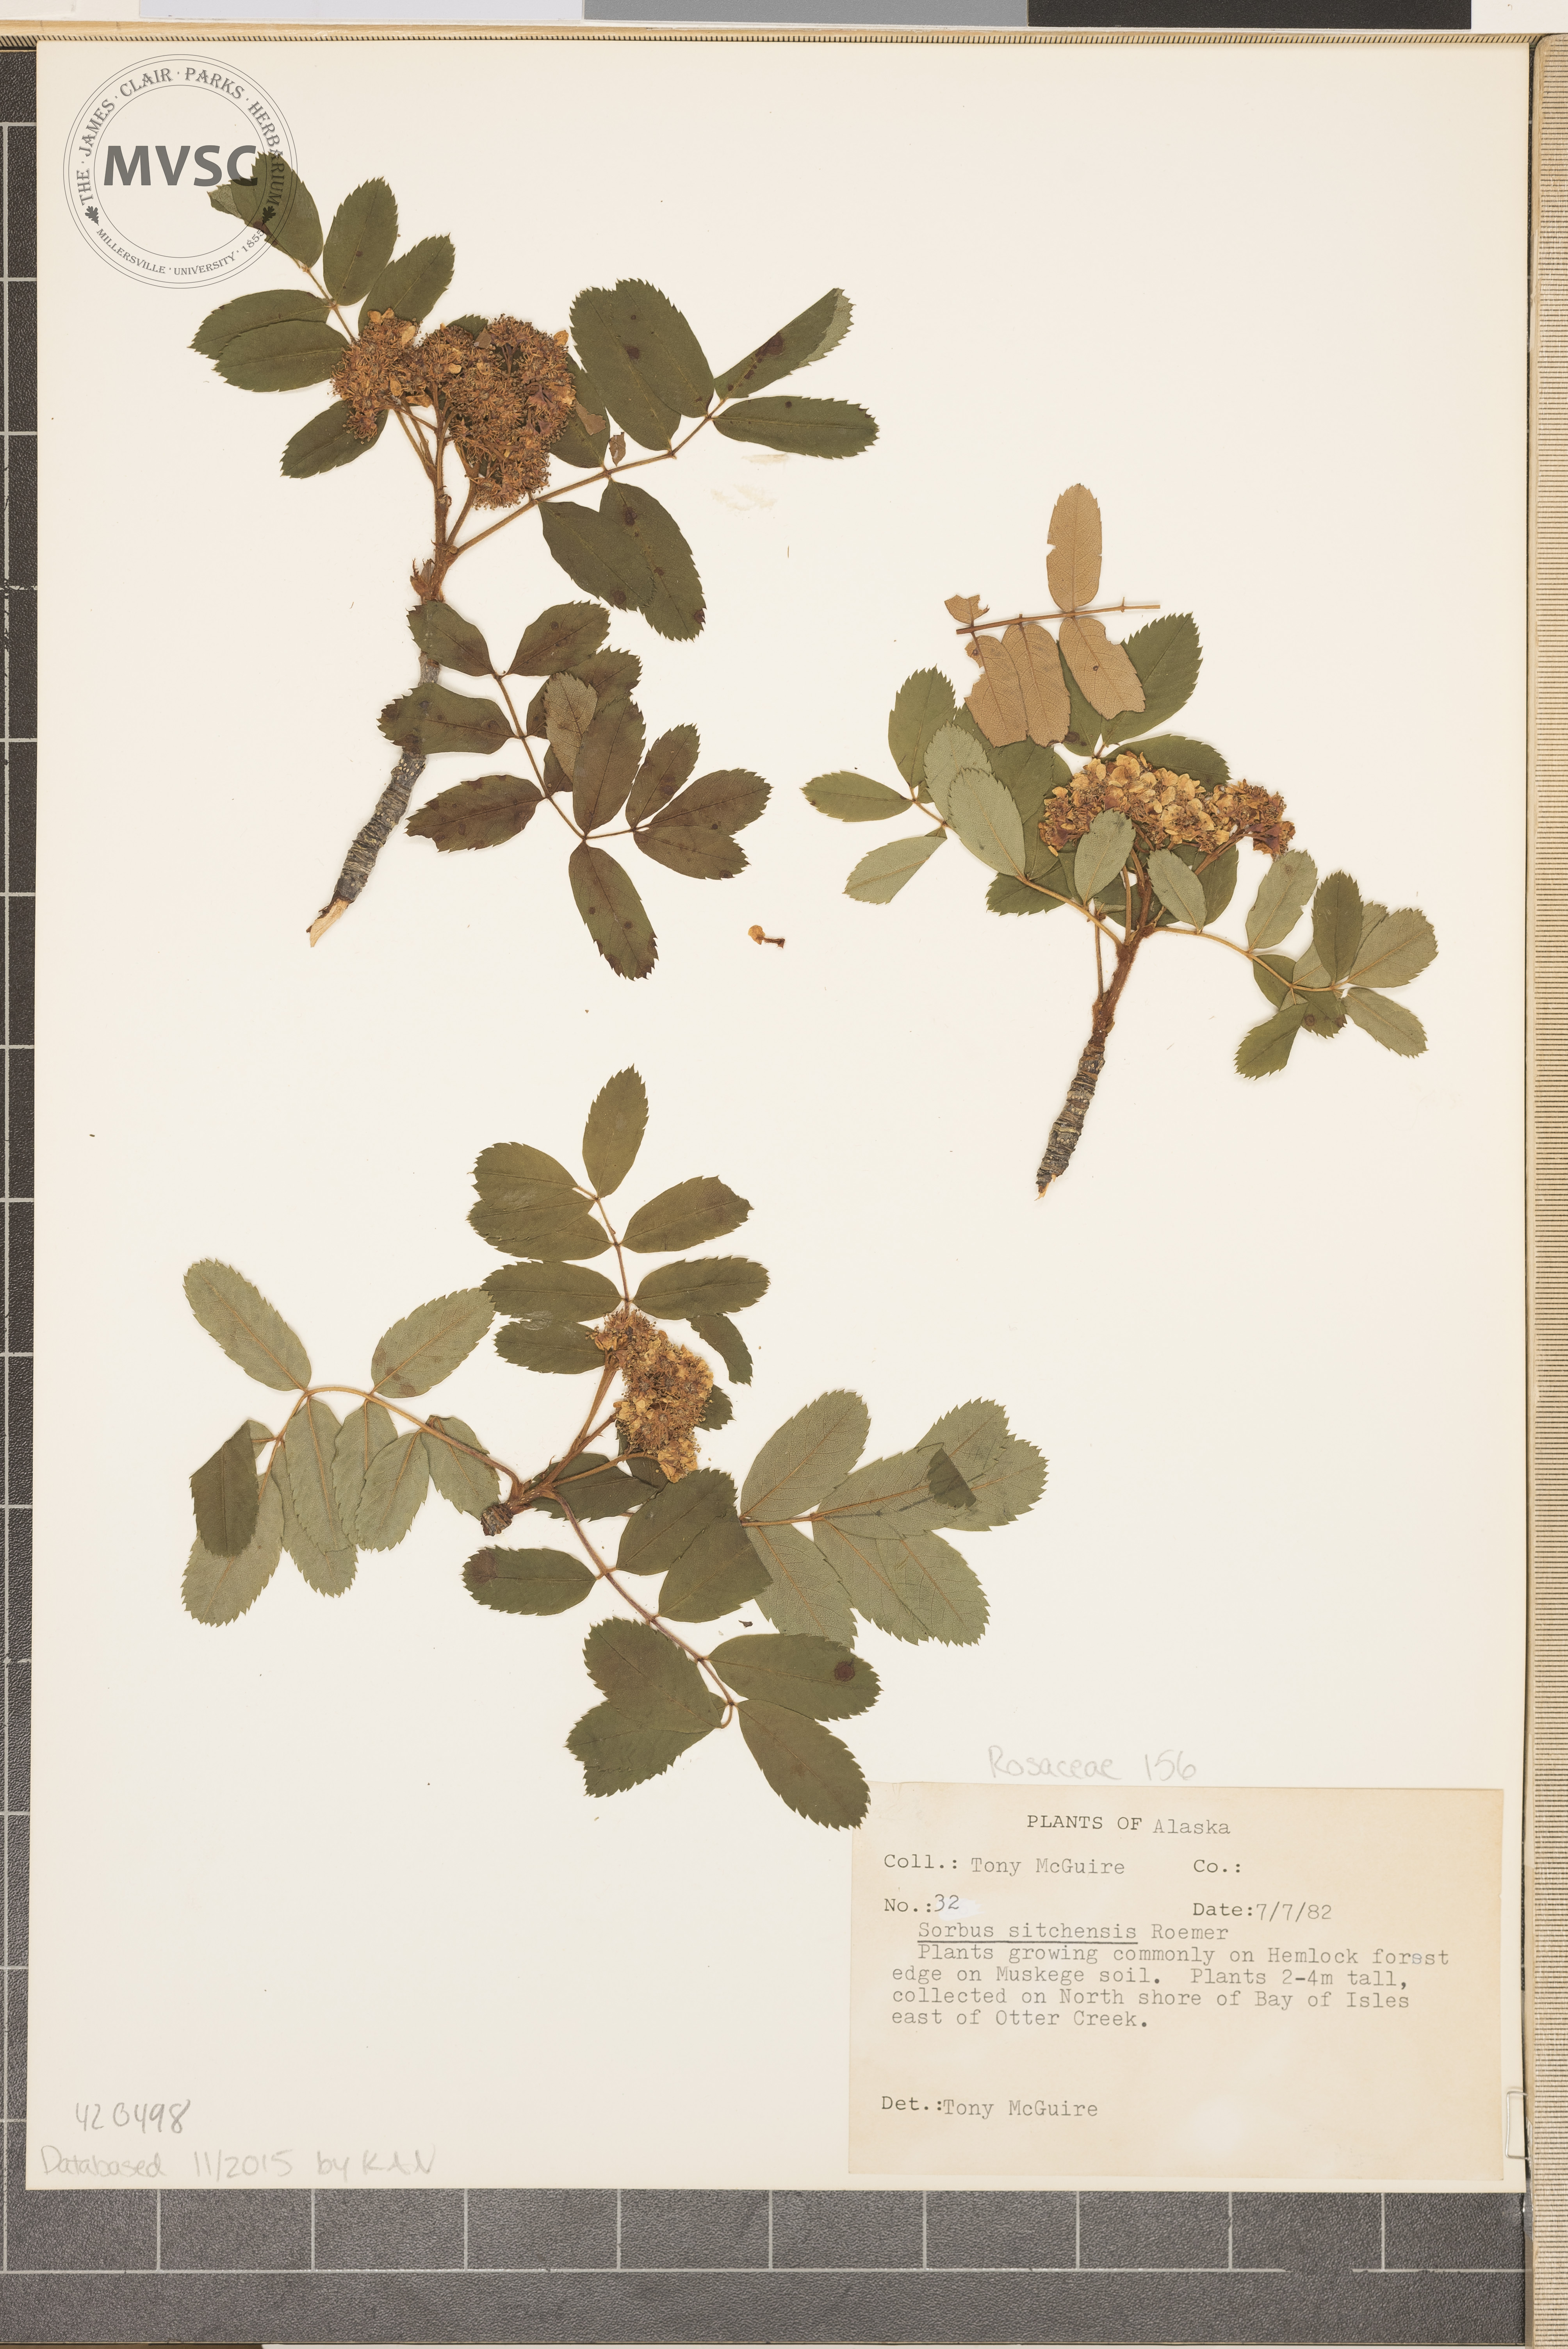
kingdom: Plantae
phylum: Tracheophyta
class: Magnoliopsida
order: Rosales
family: Rosaceae
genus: Sorbus
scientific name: Sorbus sitchensis
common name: Sitka mountain-ash
